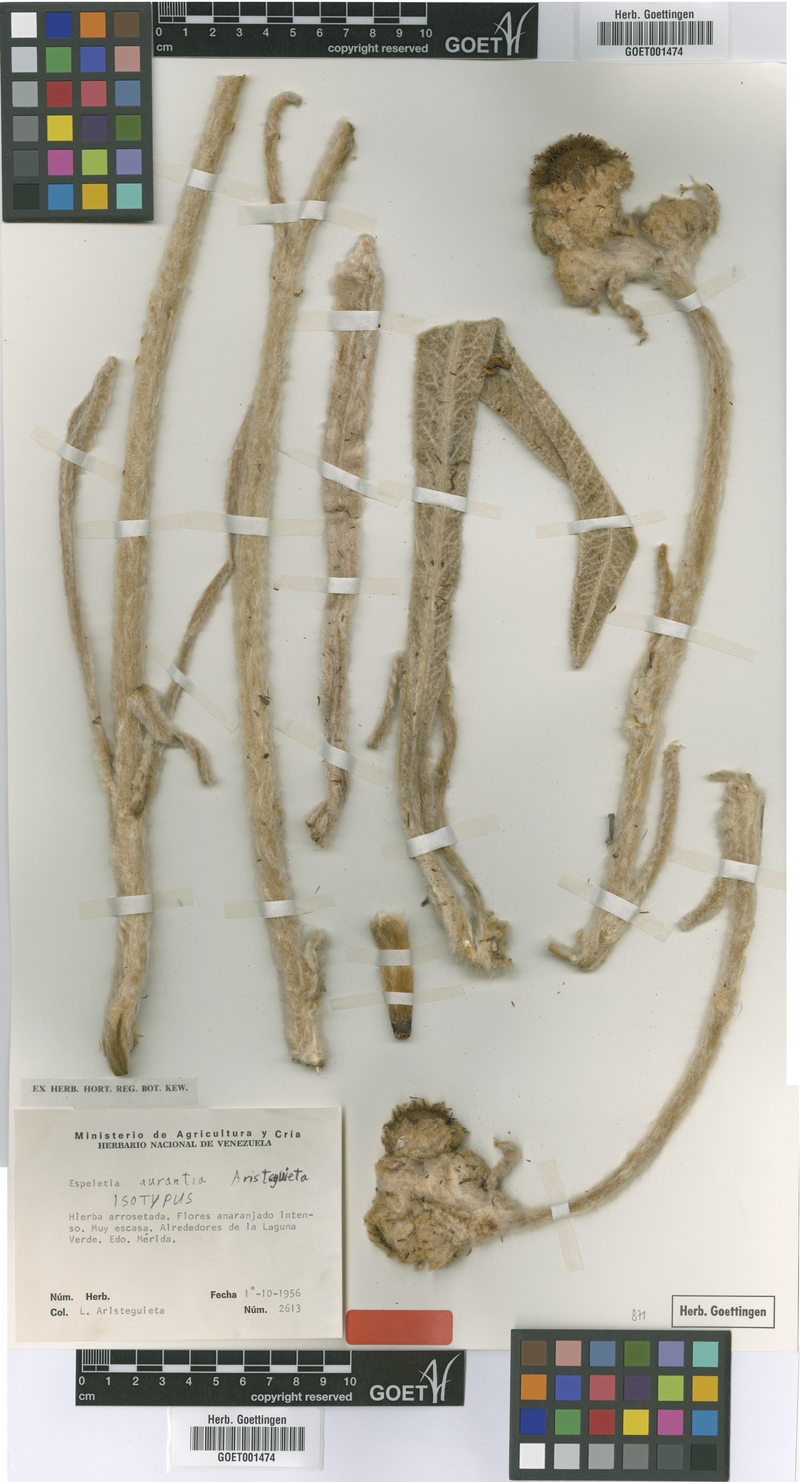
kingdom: Plantae
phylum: Tracheophyta
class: Magnoliopsida
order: Asterales
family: Asteraceae
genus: Espeletia
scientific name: Espeletia aurantia
